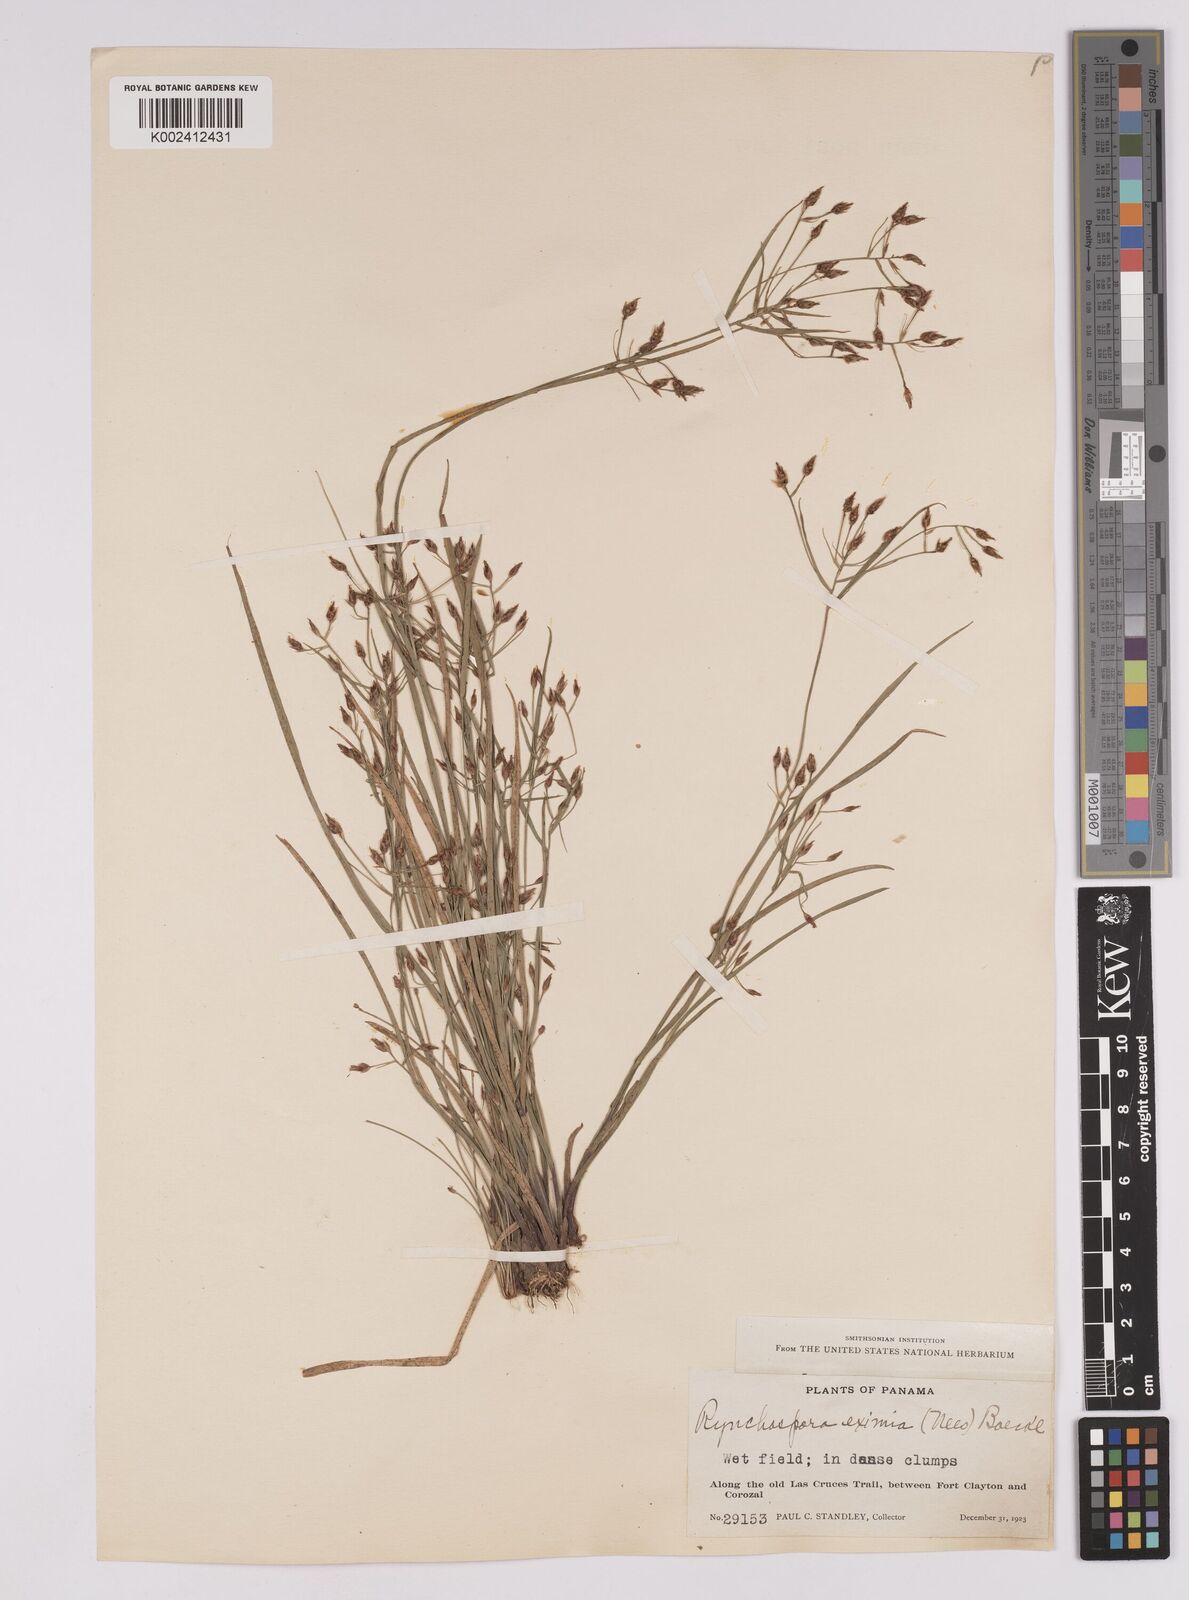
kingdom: Plantae
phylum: Tracheophyta
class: Liliopsida
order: Poales
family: Cyperaceae
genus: Rhynchospora
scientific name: Rhynchospora eximia
